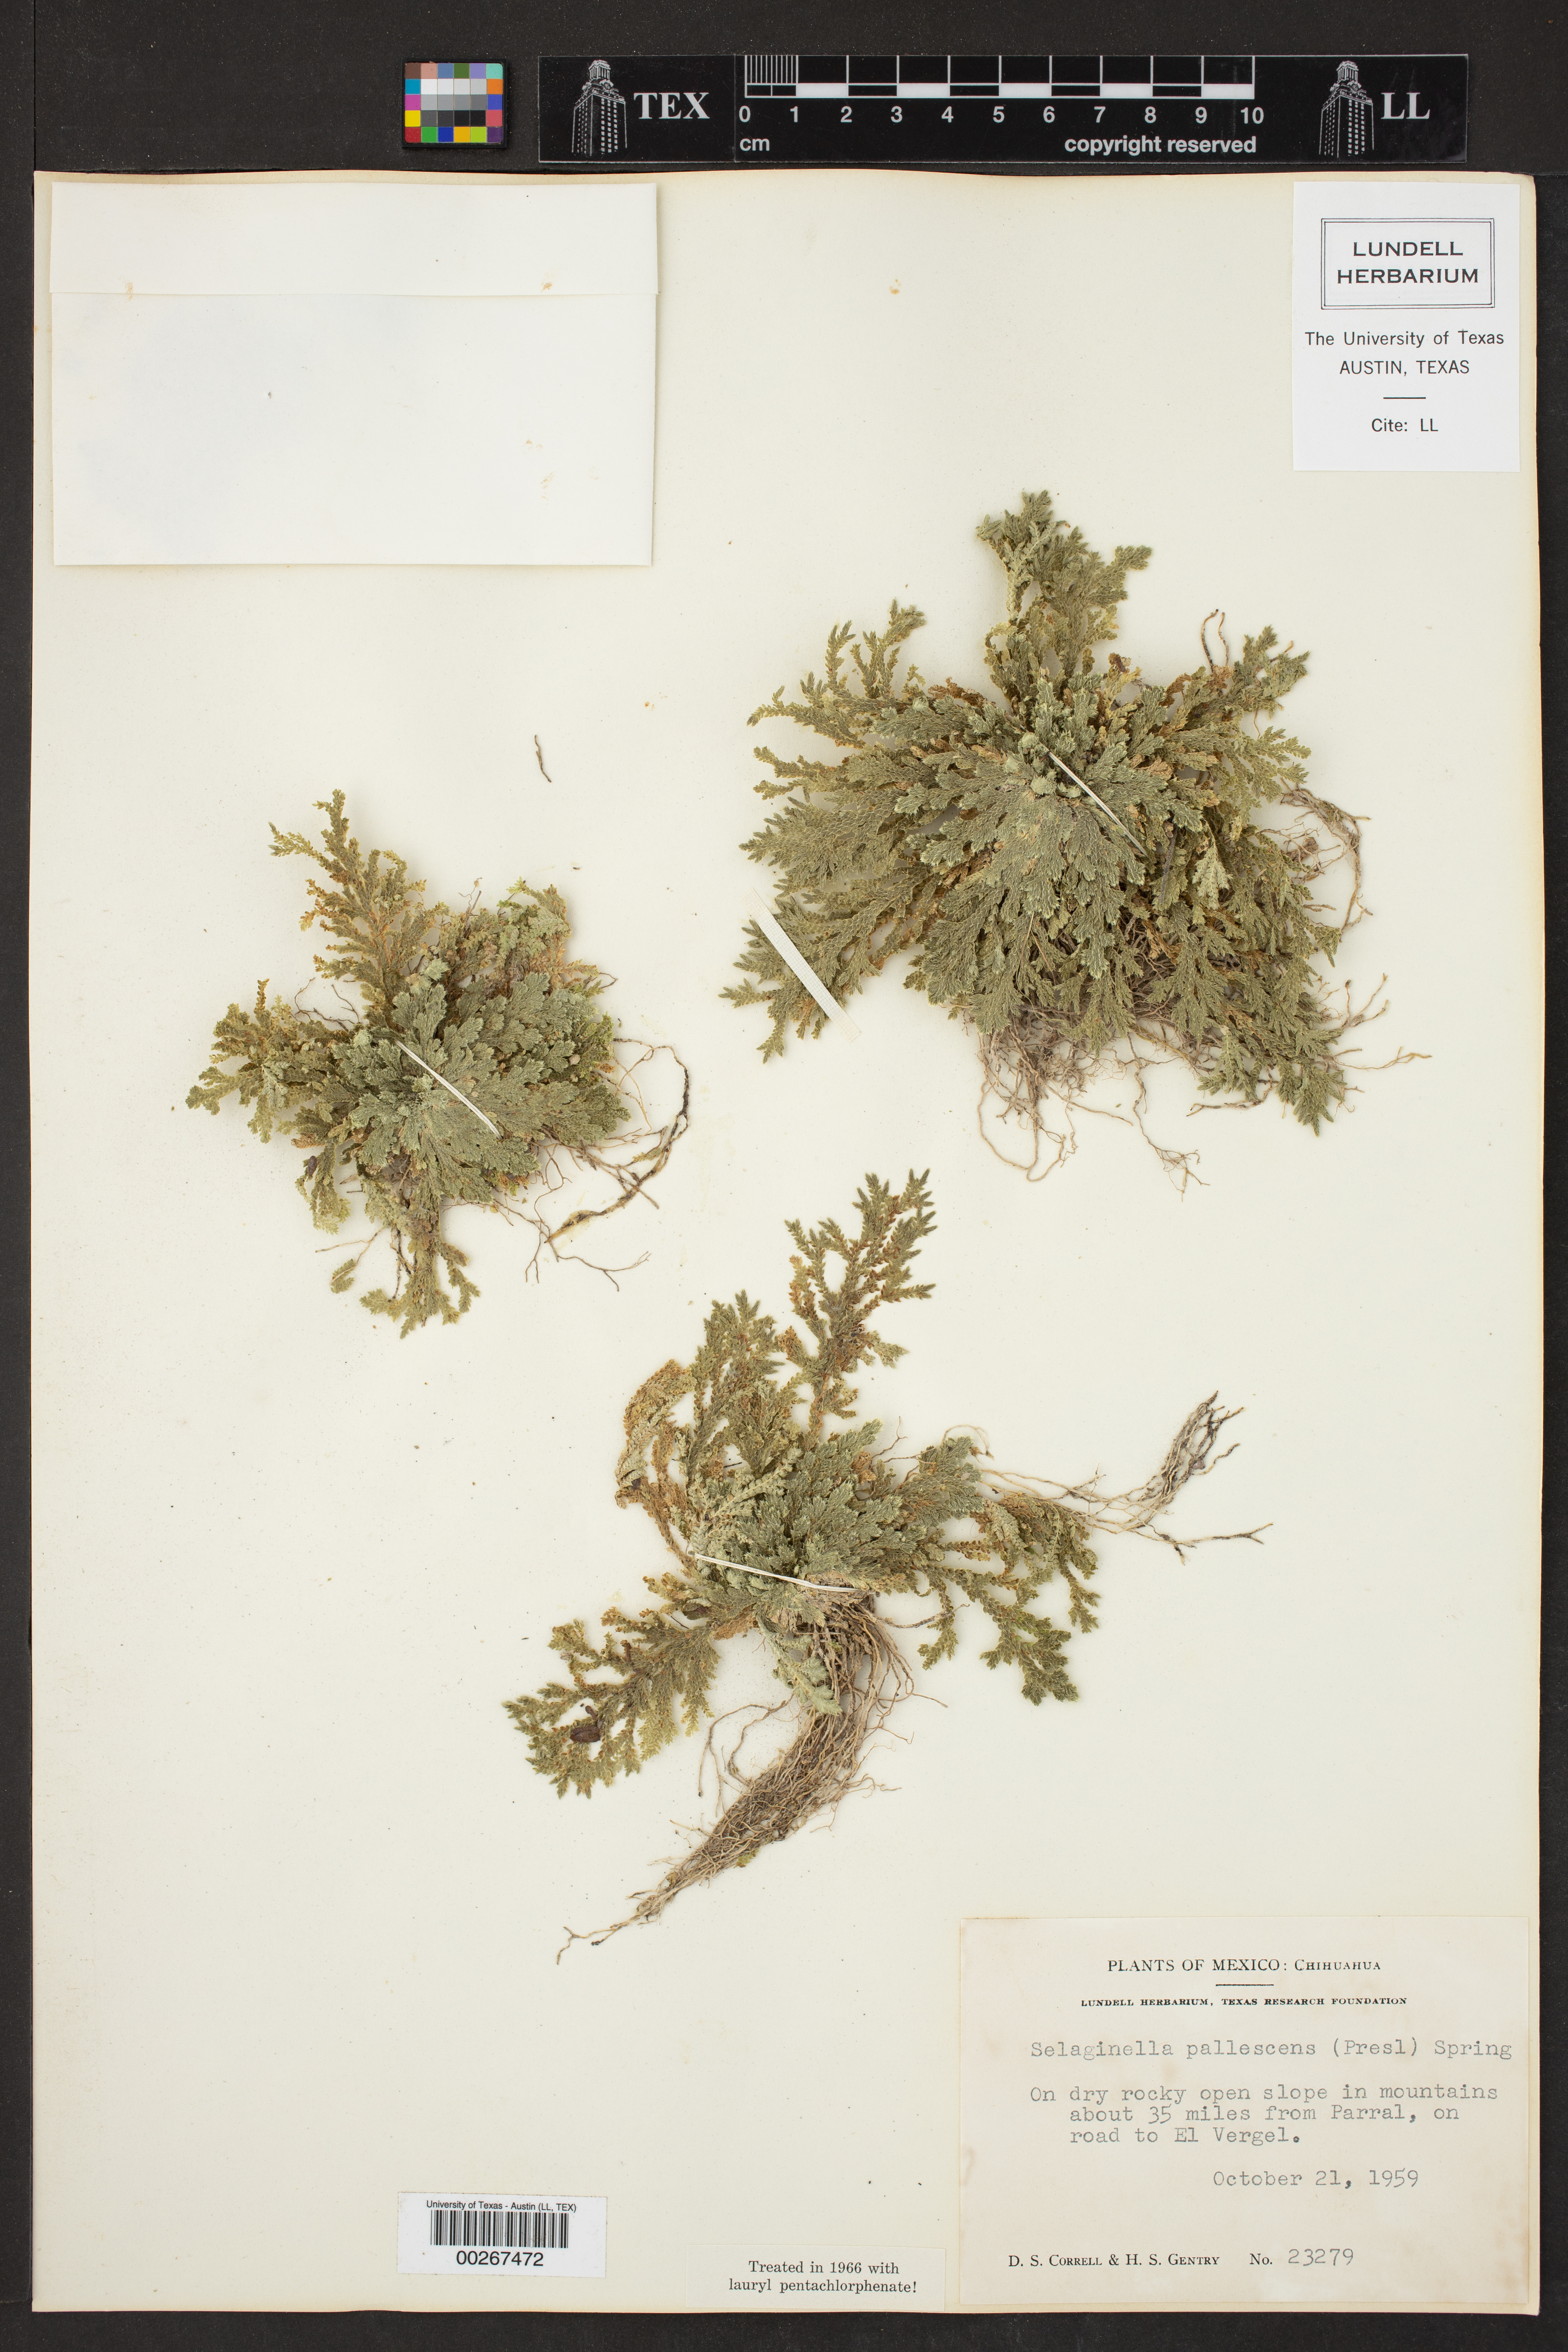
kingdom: Plantae
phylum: Tracheophyta
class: Lycopodiopsida
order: Selaginellales
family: Selaginellaceae
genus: Selaginella
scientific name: Selaginella pallescens
